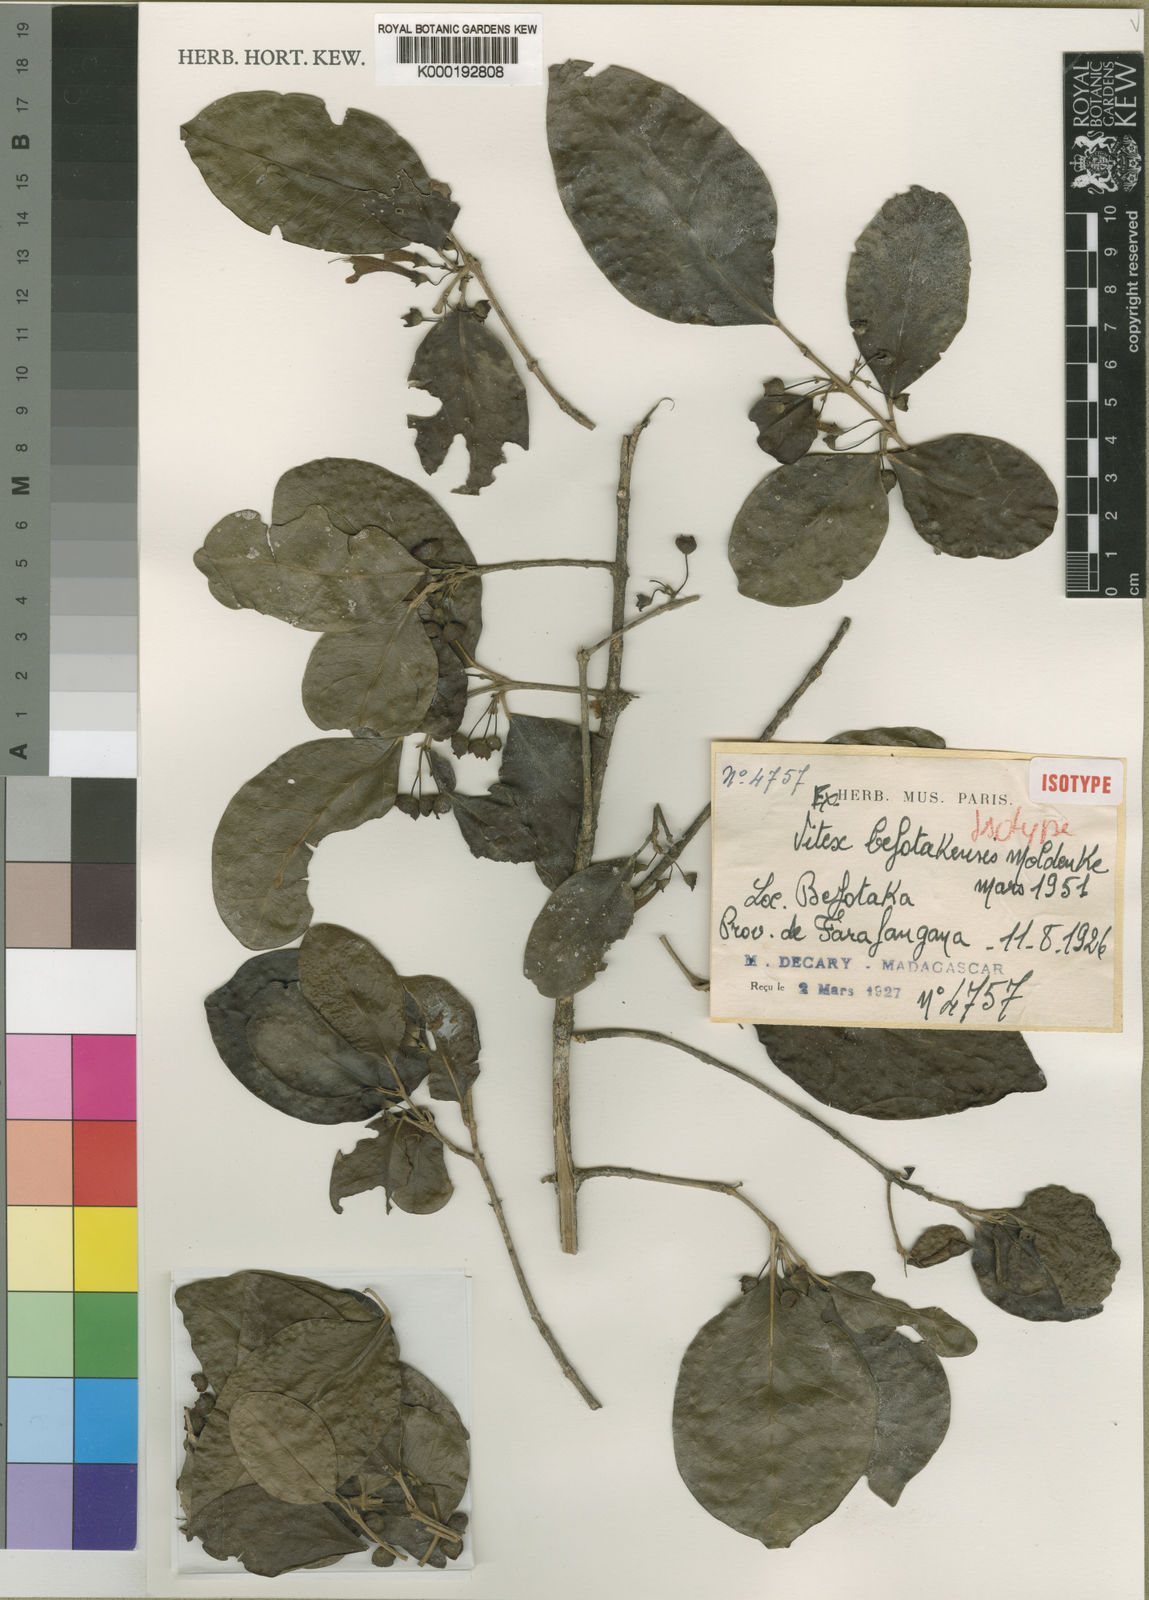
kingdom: Plantae
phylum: Tracheophyta
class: Magnoliopsida
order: Lamiales
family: Lamiaceae
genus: Vitex
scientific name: Vitex befotakensis
